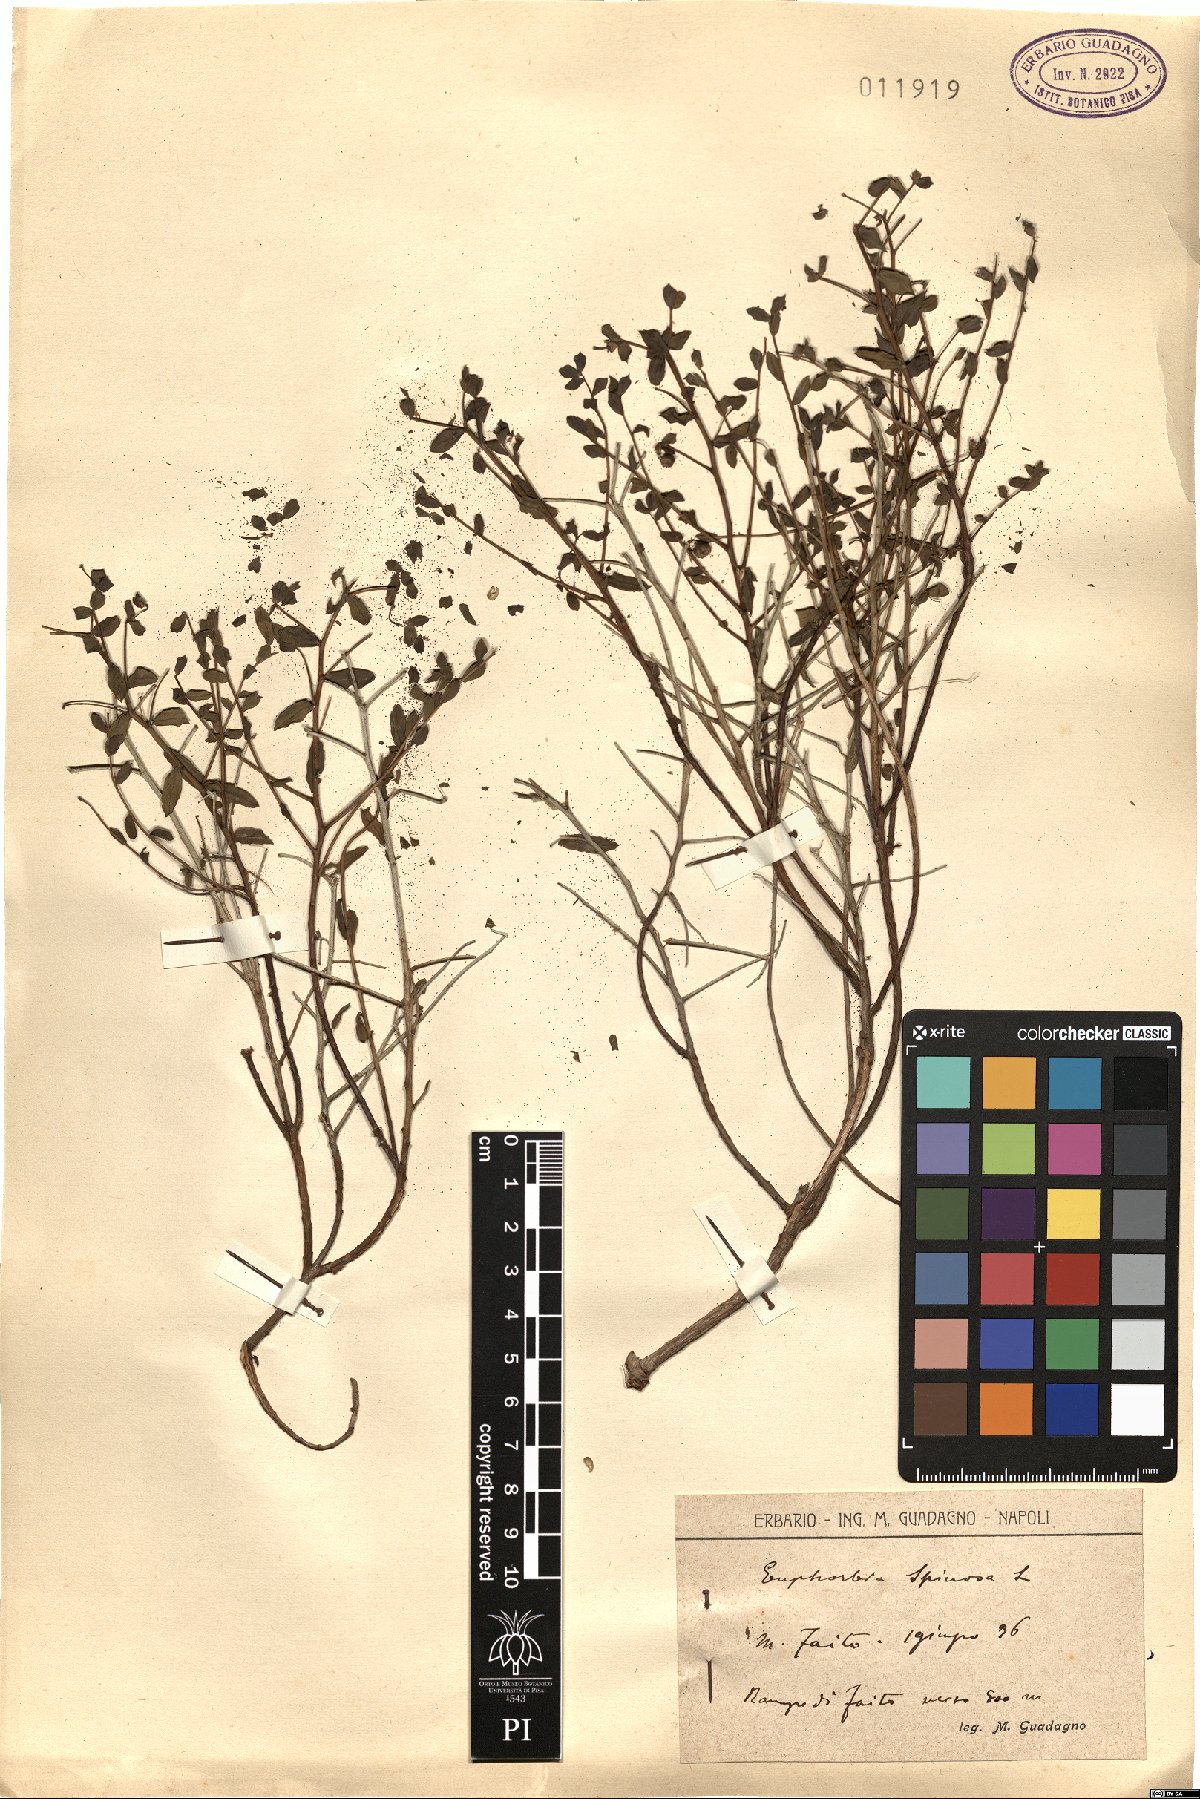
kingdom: Plantae
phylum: Tracheophyta
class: Magnoliopsida
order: Malpighiales
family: Euphorbiaceae
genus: Euphorbia
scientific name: Euphorbia spinosa
